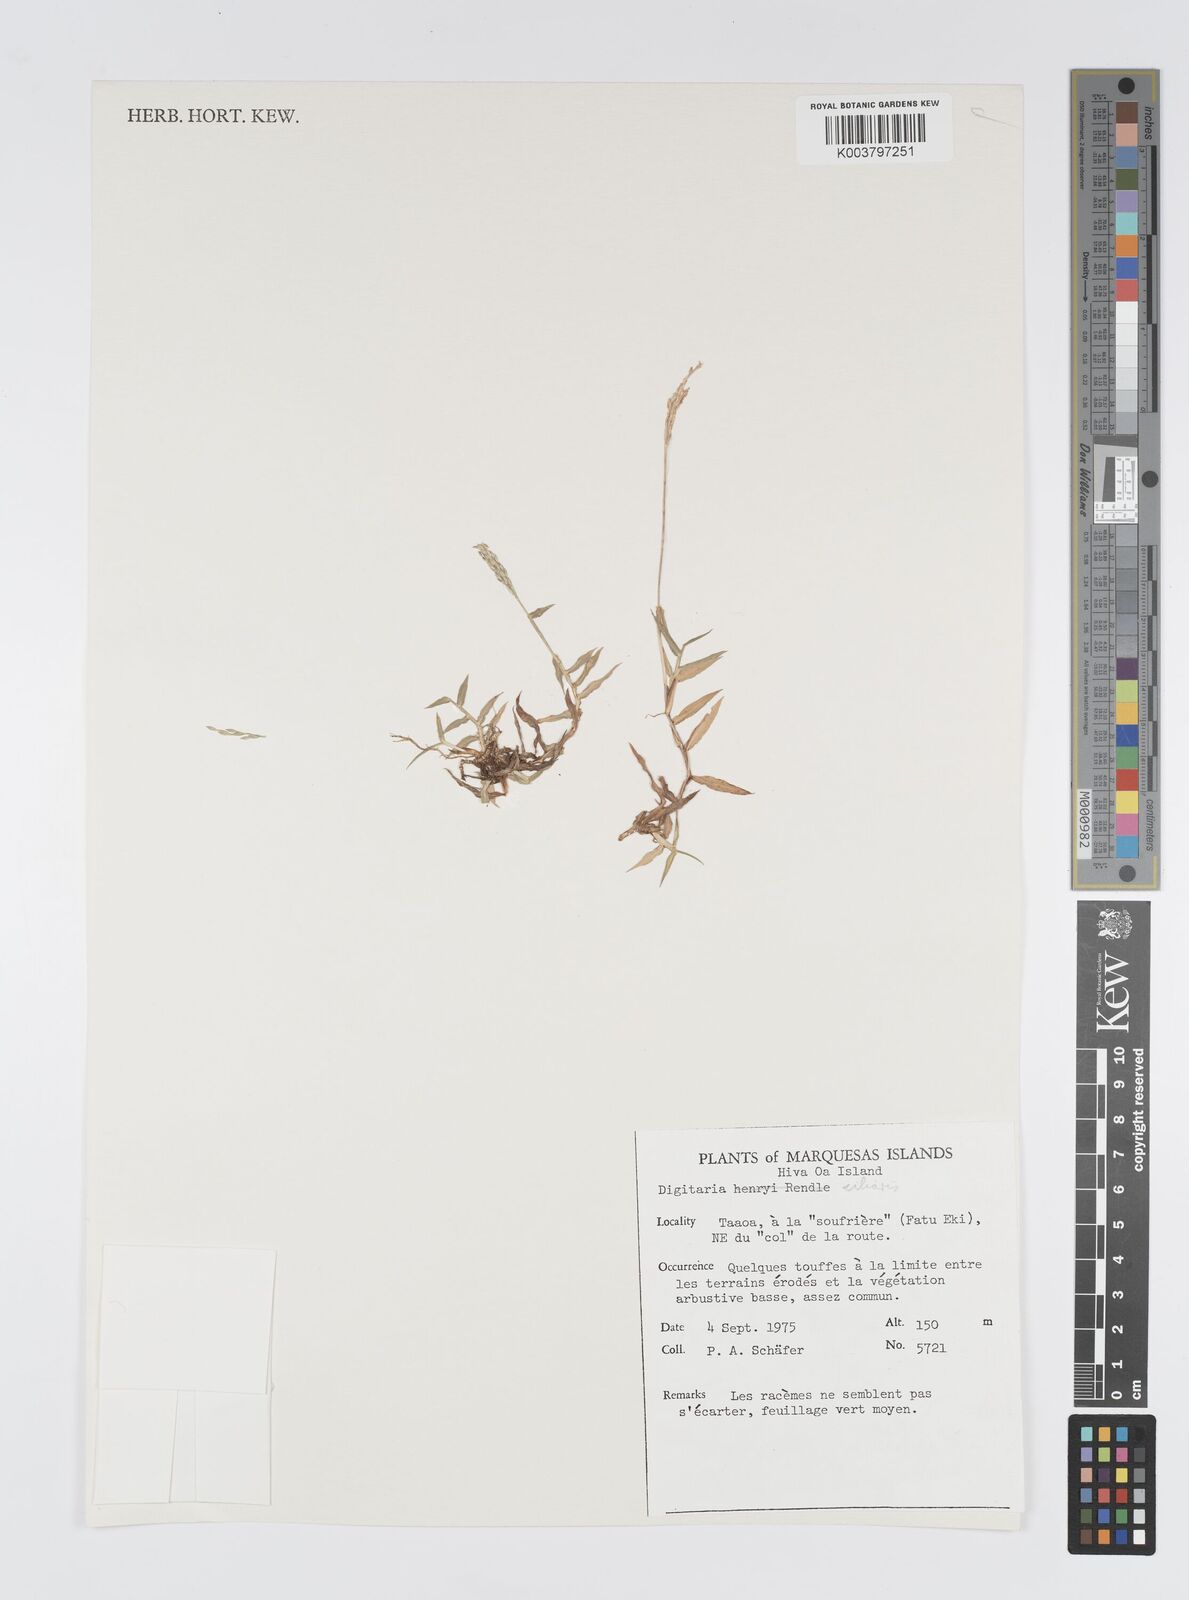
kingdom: Plantae
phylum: Tracheophyta
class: Liliopsida
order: Poales
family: Poaceae
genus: Digitaria
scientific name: Digitaria ciliaris
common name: Tropical finger-grass
